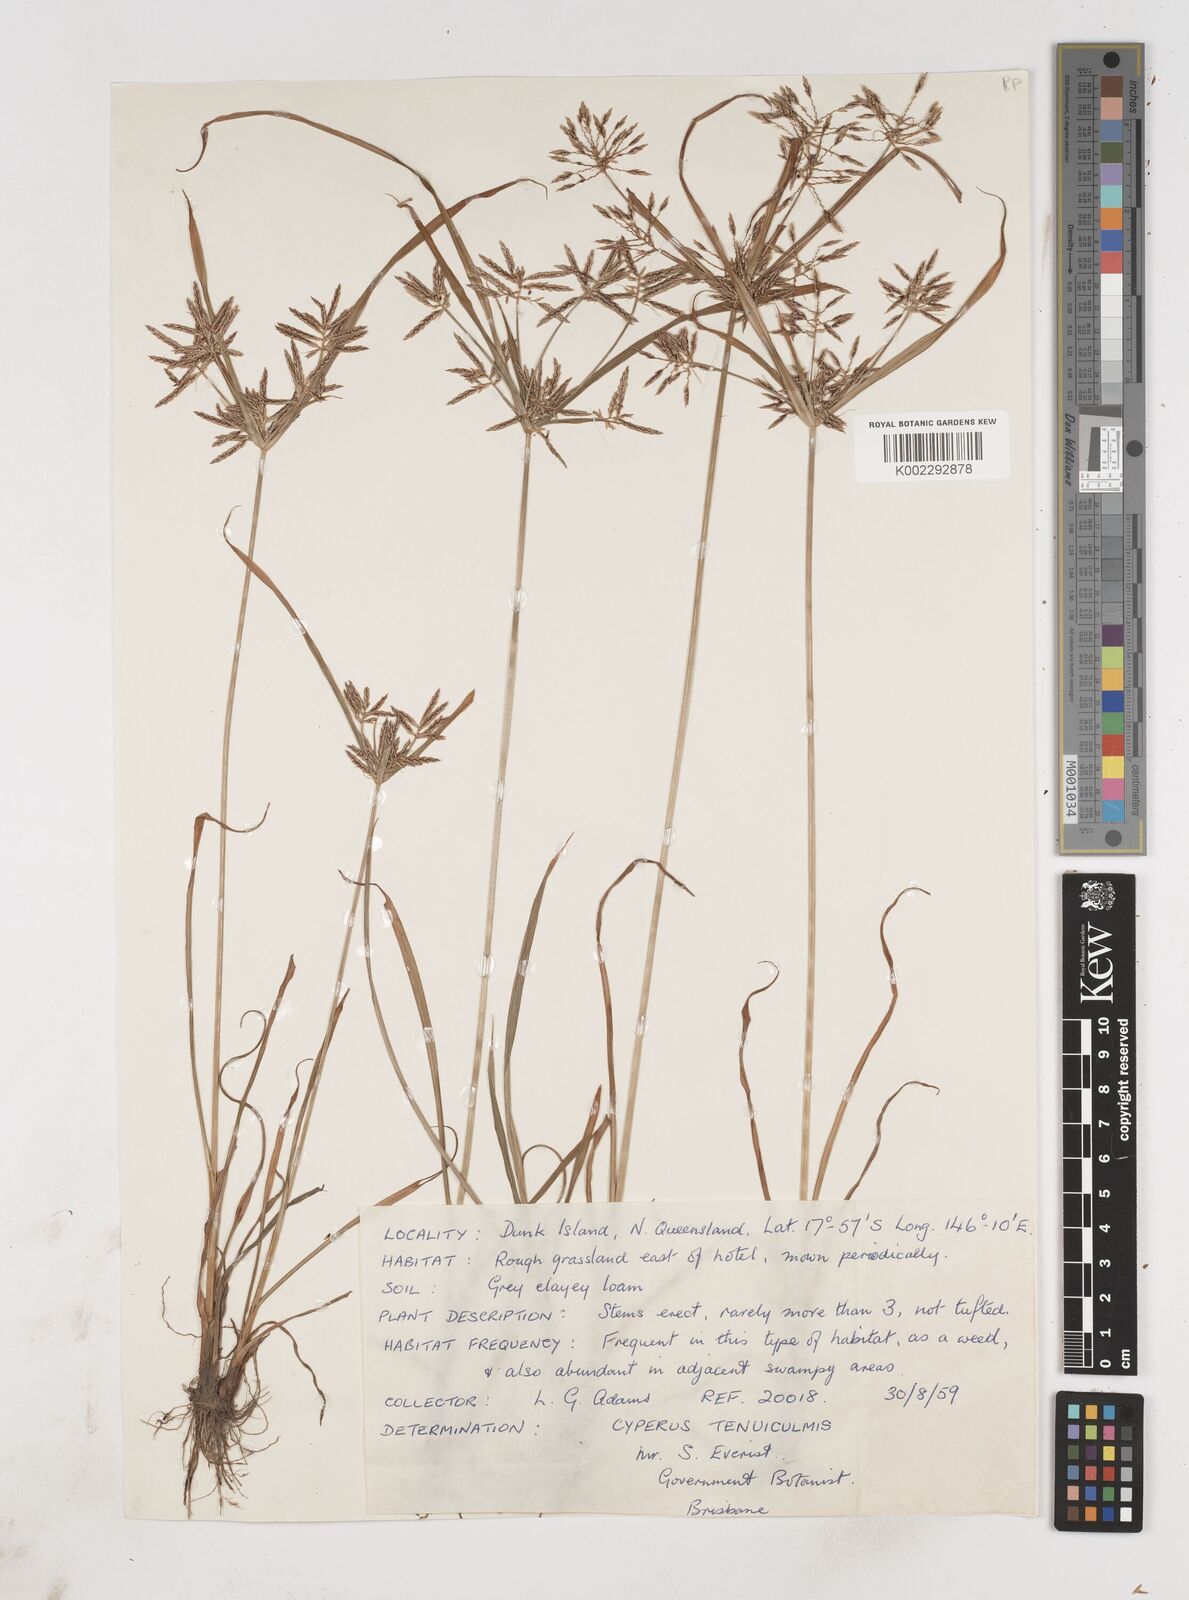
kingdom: Plantae
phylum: Tracheophyta
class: Liliopsida
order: Poales
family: Cyperaceae
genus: Cyperus
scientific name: Cyperus sphacelatus
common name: Roadside flatsedge
